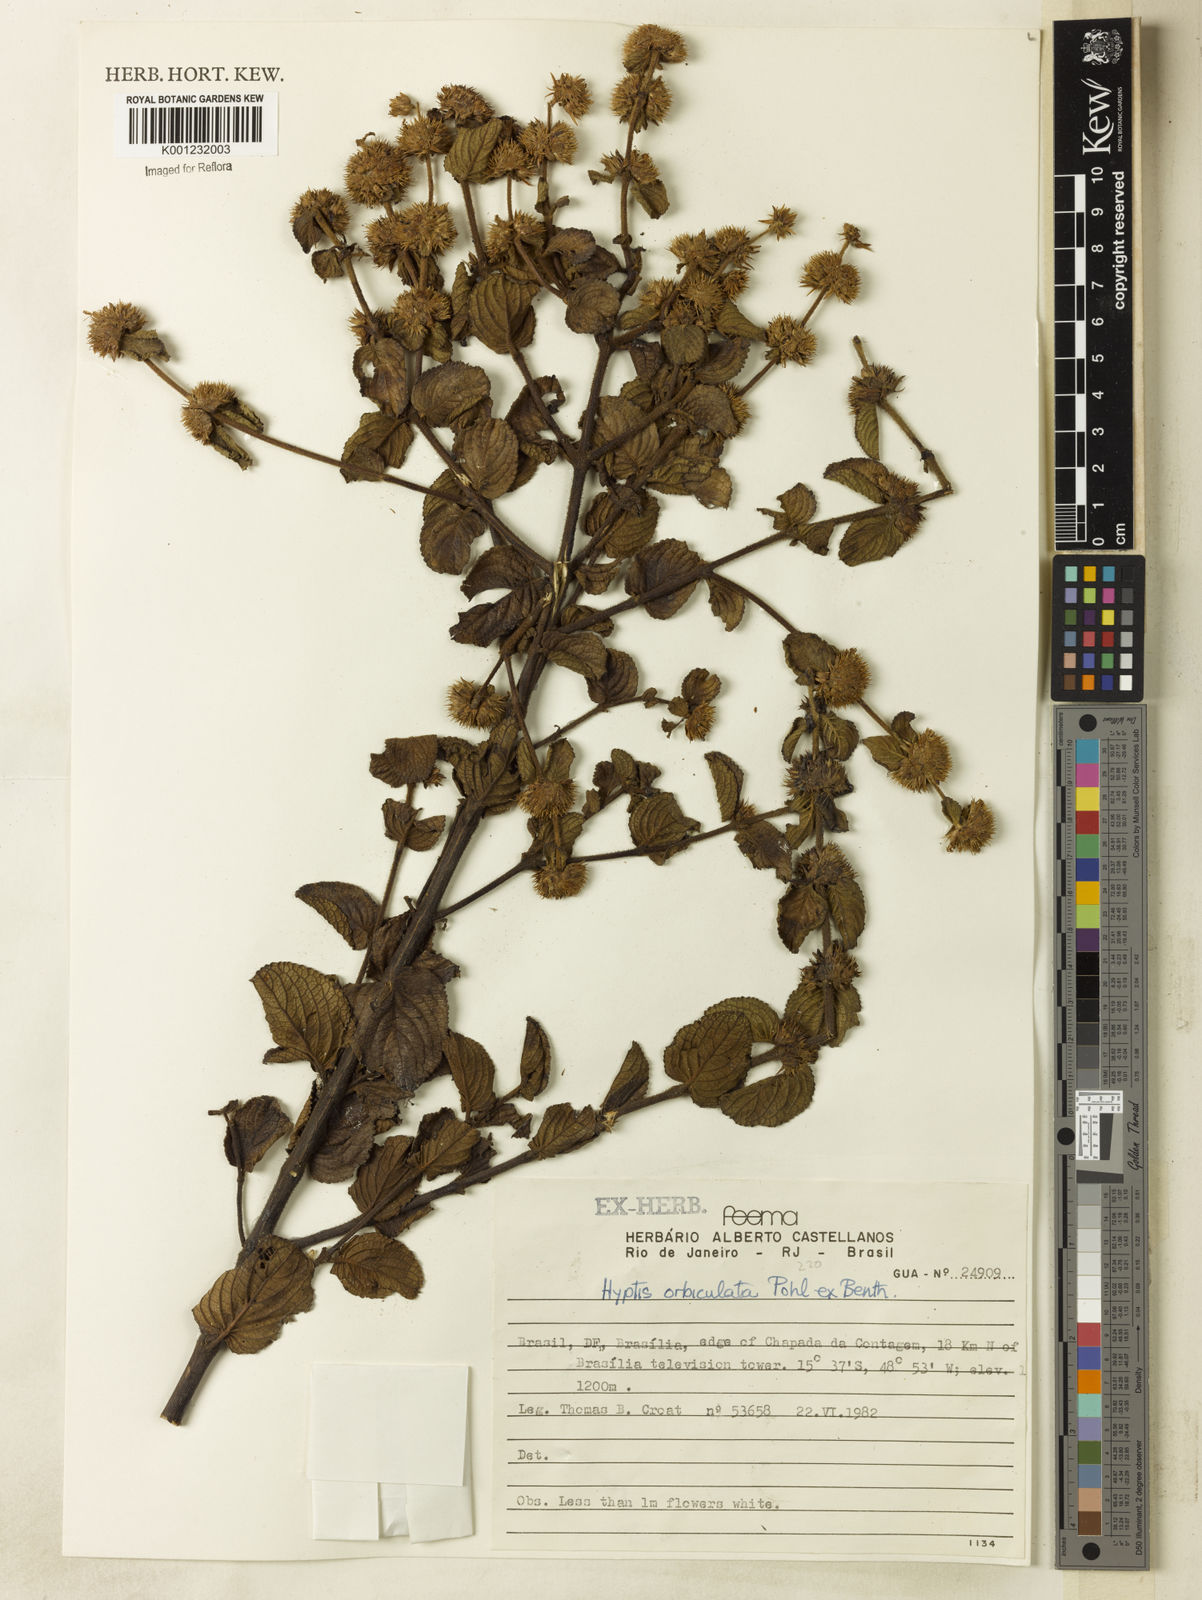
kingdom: Plantae
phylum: Tracheophyta
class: Magnoliopsida
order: Lamiales
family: Lamiaceae
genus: Hyptis
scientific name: Hyptis orbiculata
